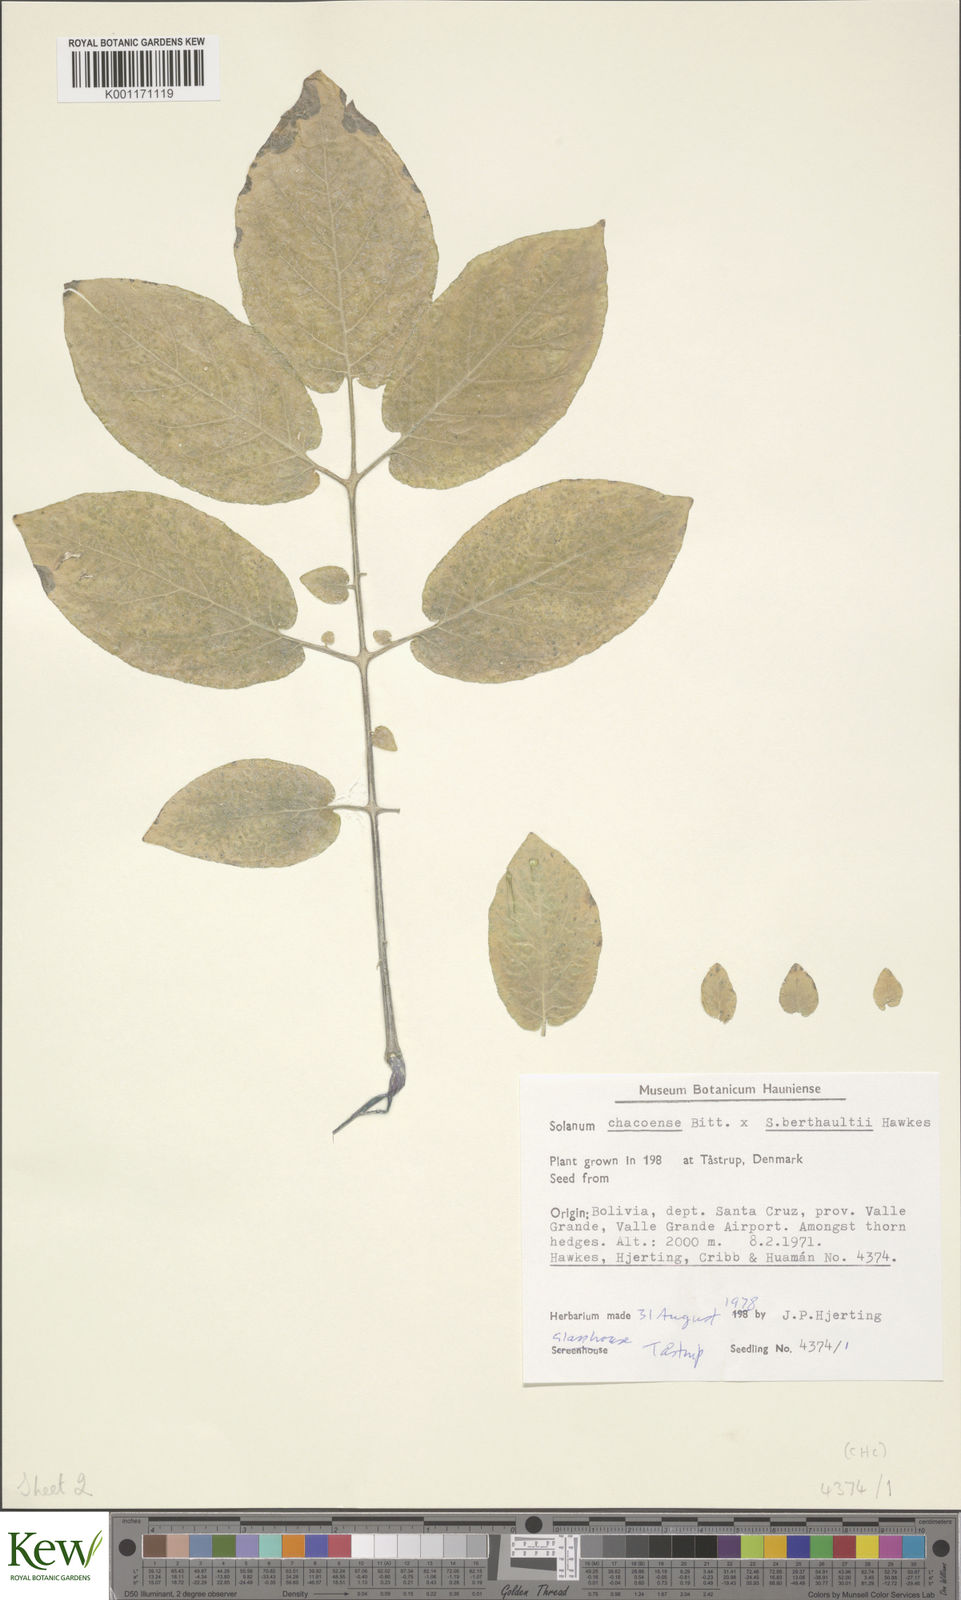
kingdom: Plantae
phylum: Tracheophyta
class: Magnoliopsida
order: Solanales
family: Solanaceae
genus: Solanum
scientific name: Solanum chacoense
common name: Chaco potato
